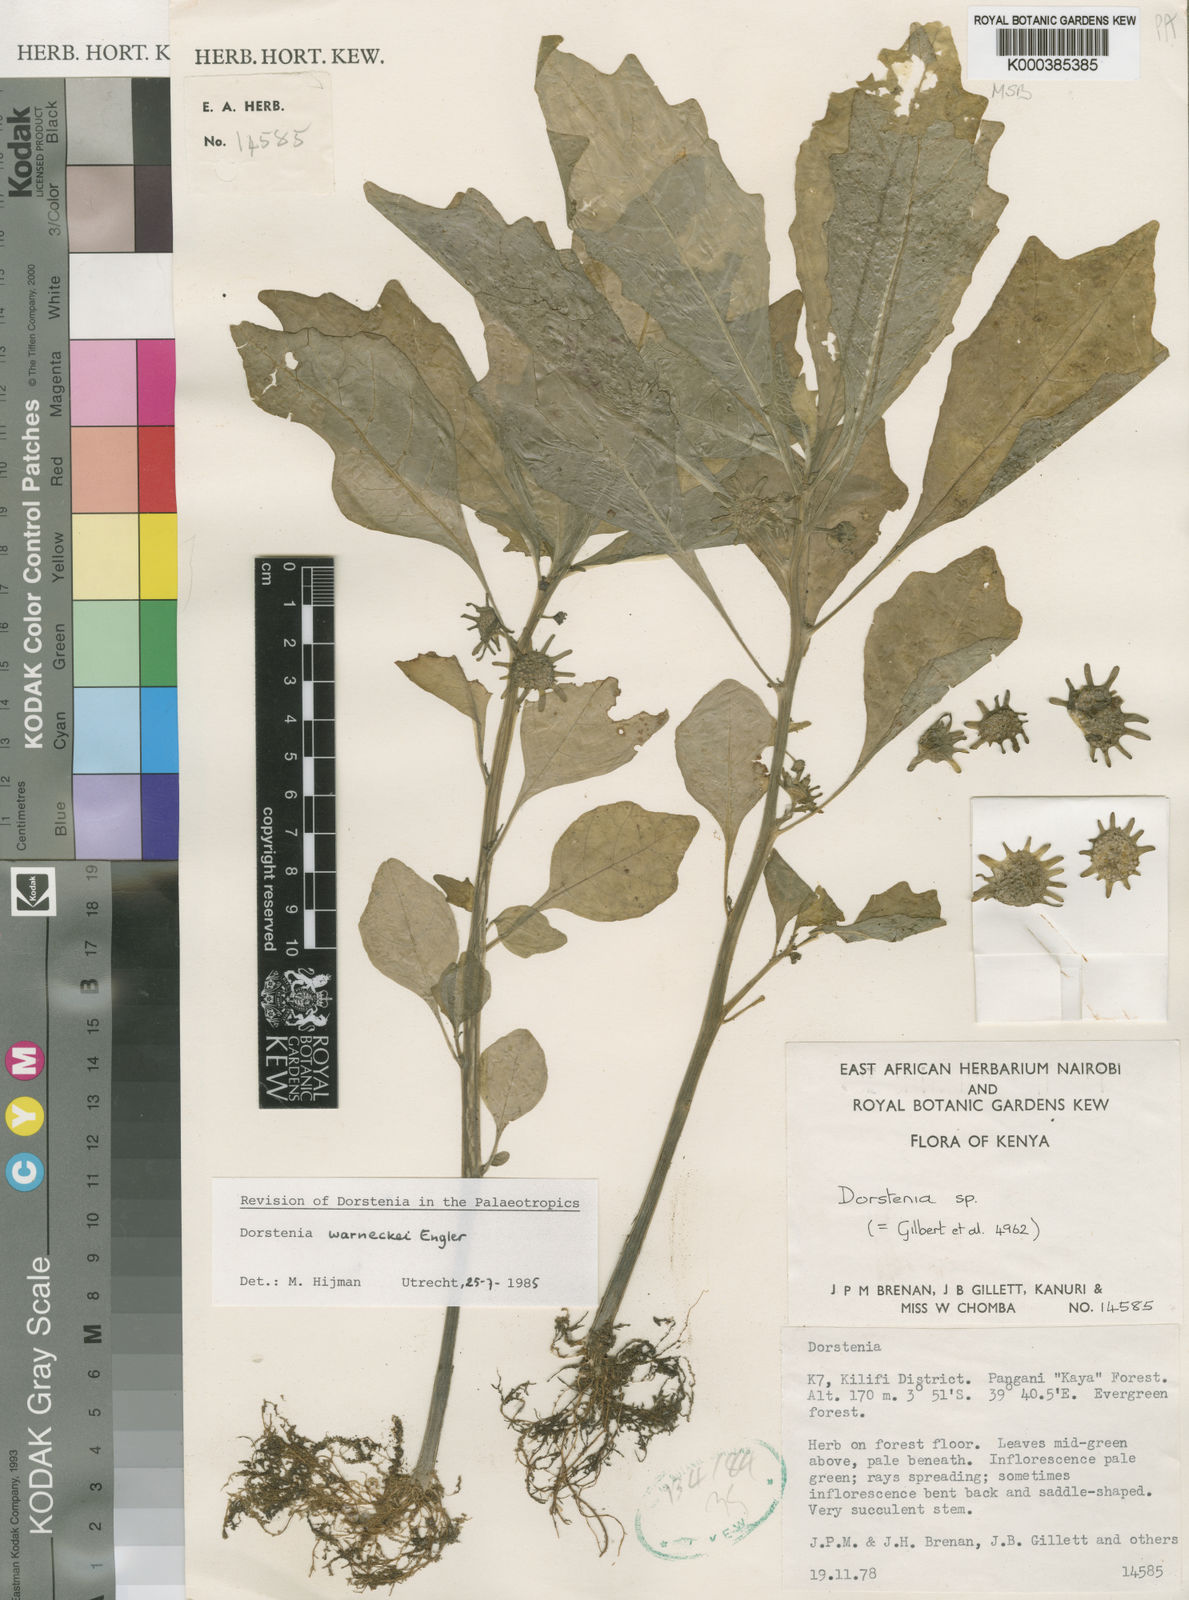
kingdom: Plantae
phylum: Tracheophyta
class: Magnoliopsida
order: Rosales
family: Moraceae
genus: Dorstenia
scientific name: Dorstenia warneckei
